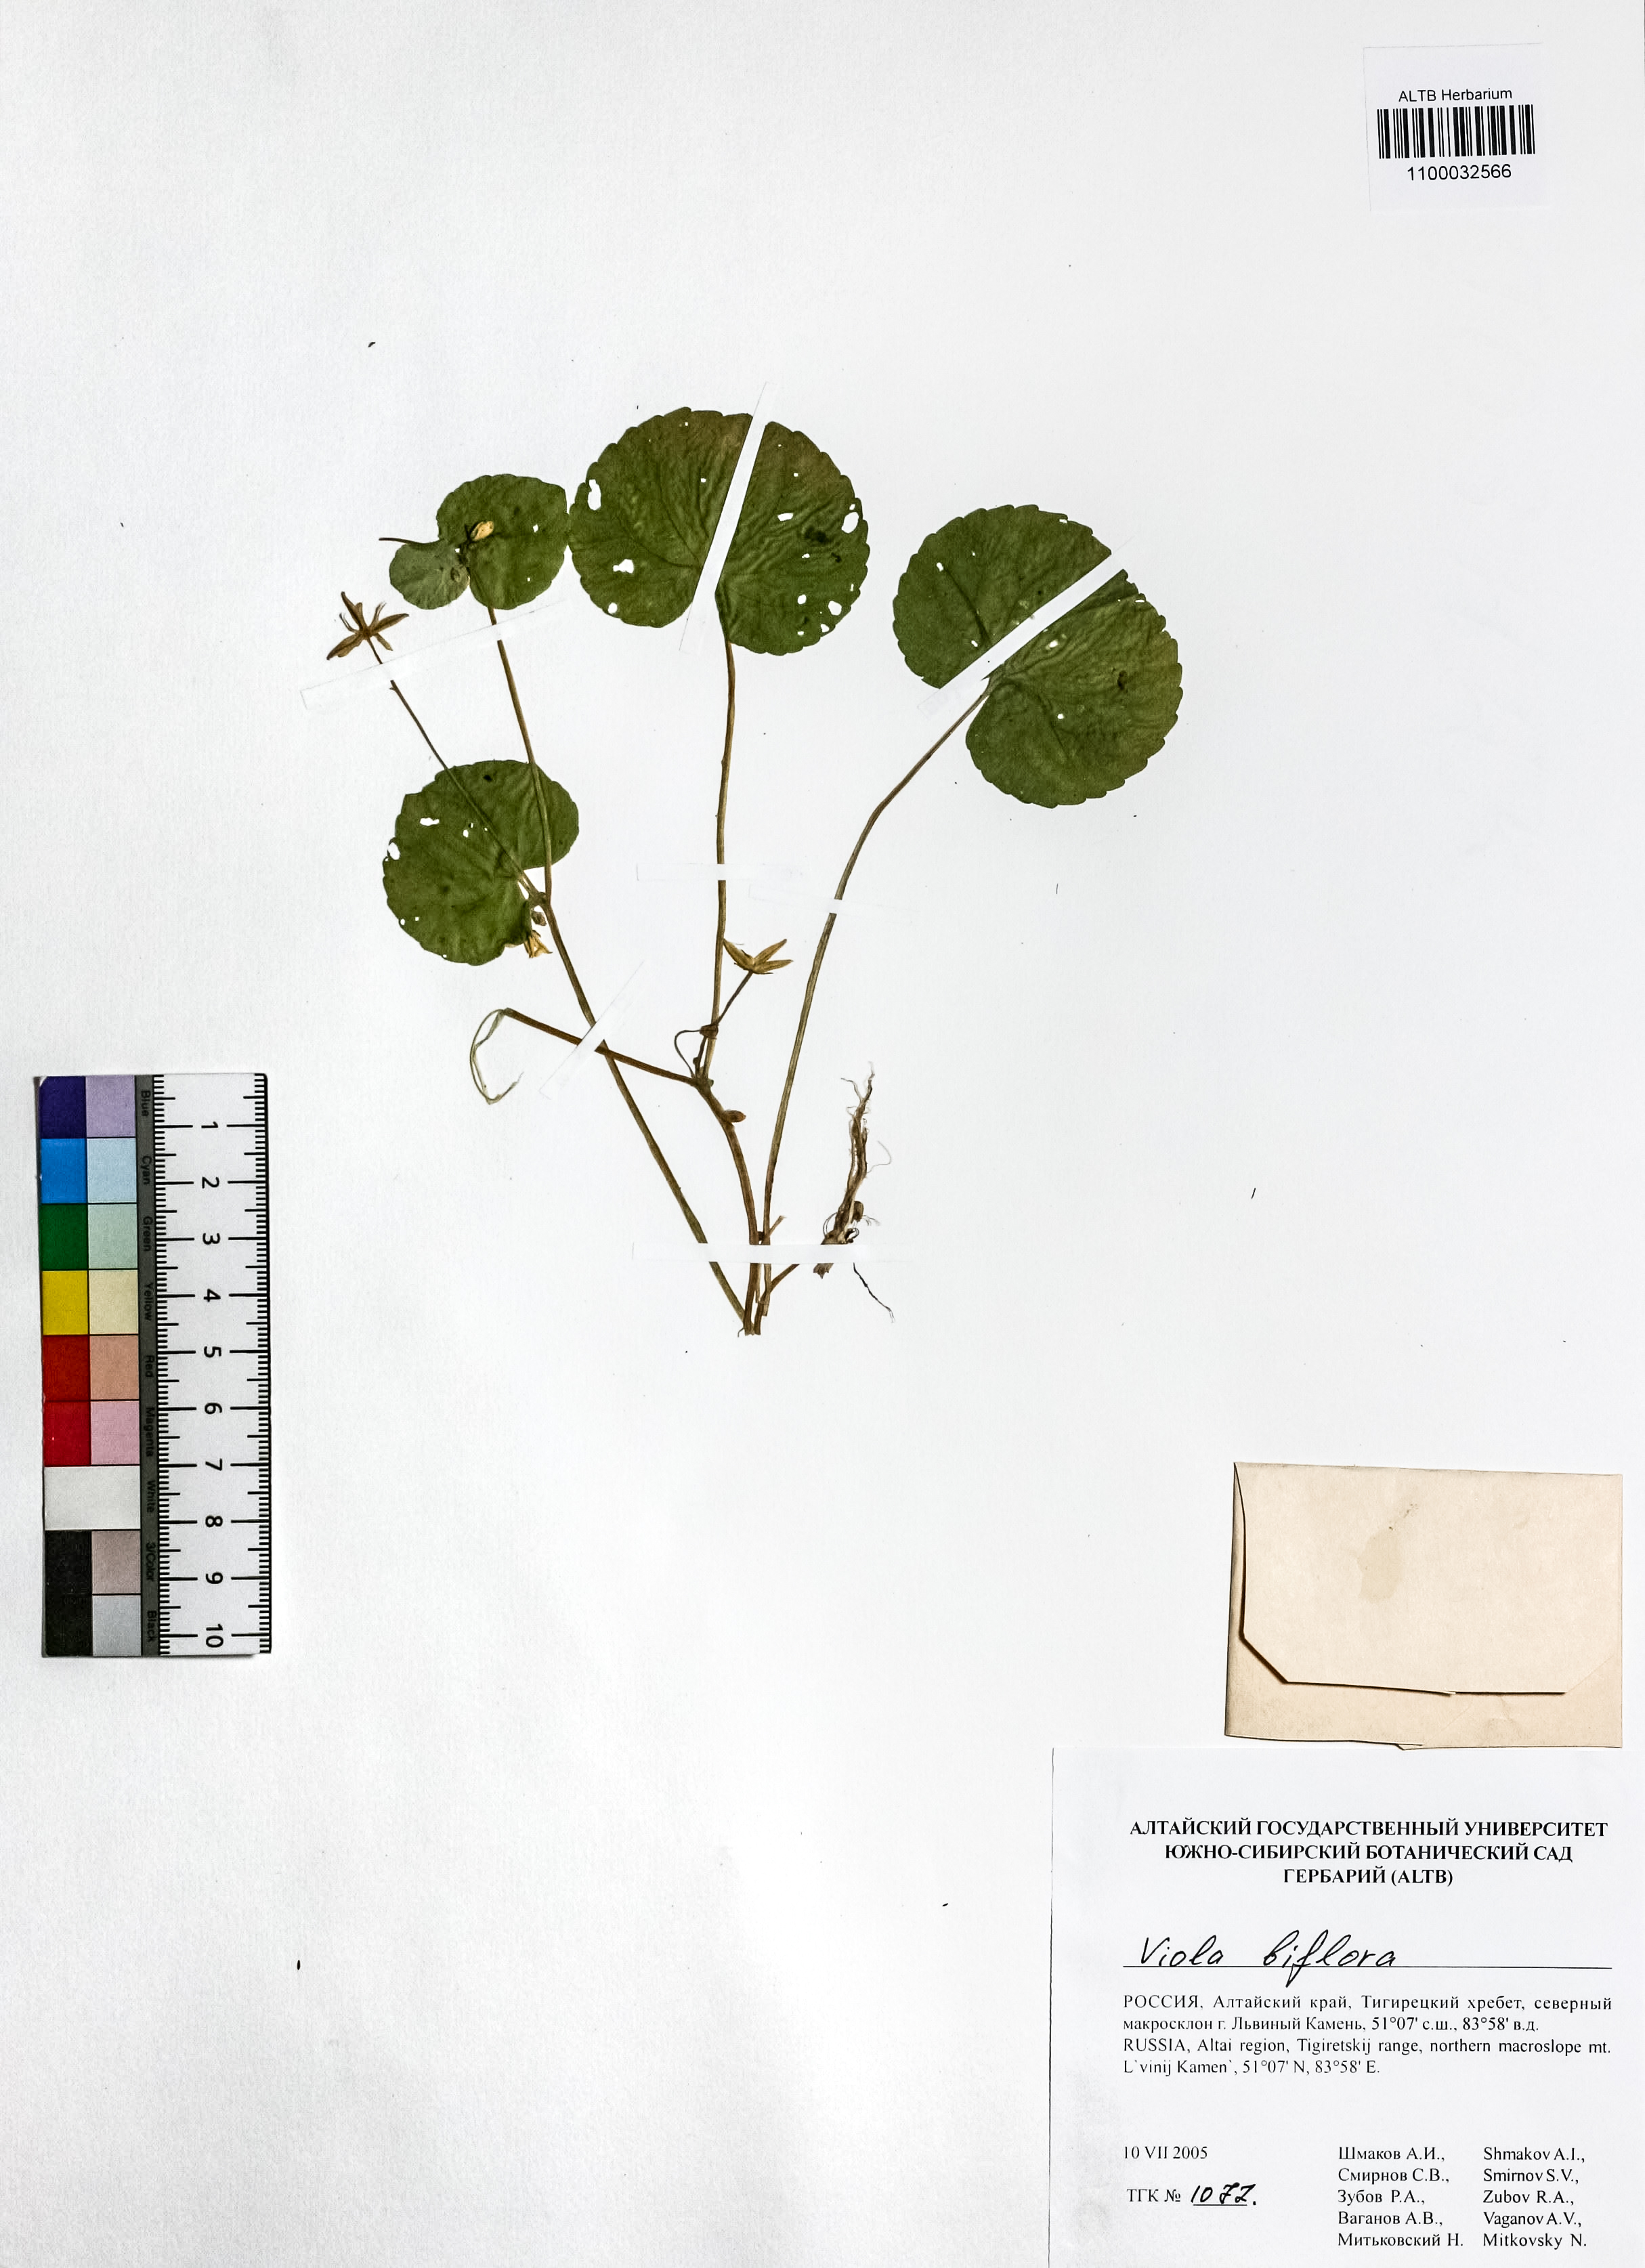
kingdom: Plantae
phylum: Tracheophyta
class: Magnoliopsida
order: Malpighiales
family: Violaceae
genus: Viola
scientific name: Viola biflora
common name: Alpine yellow violet
